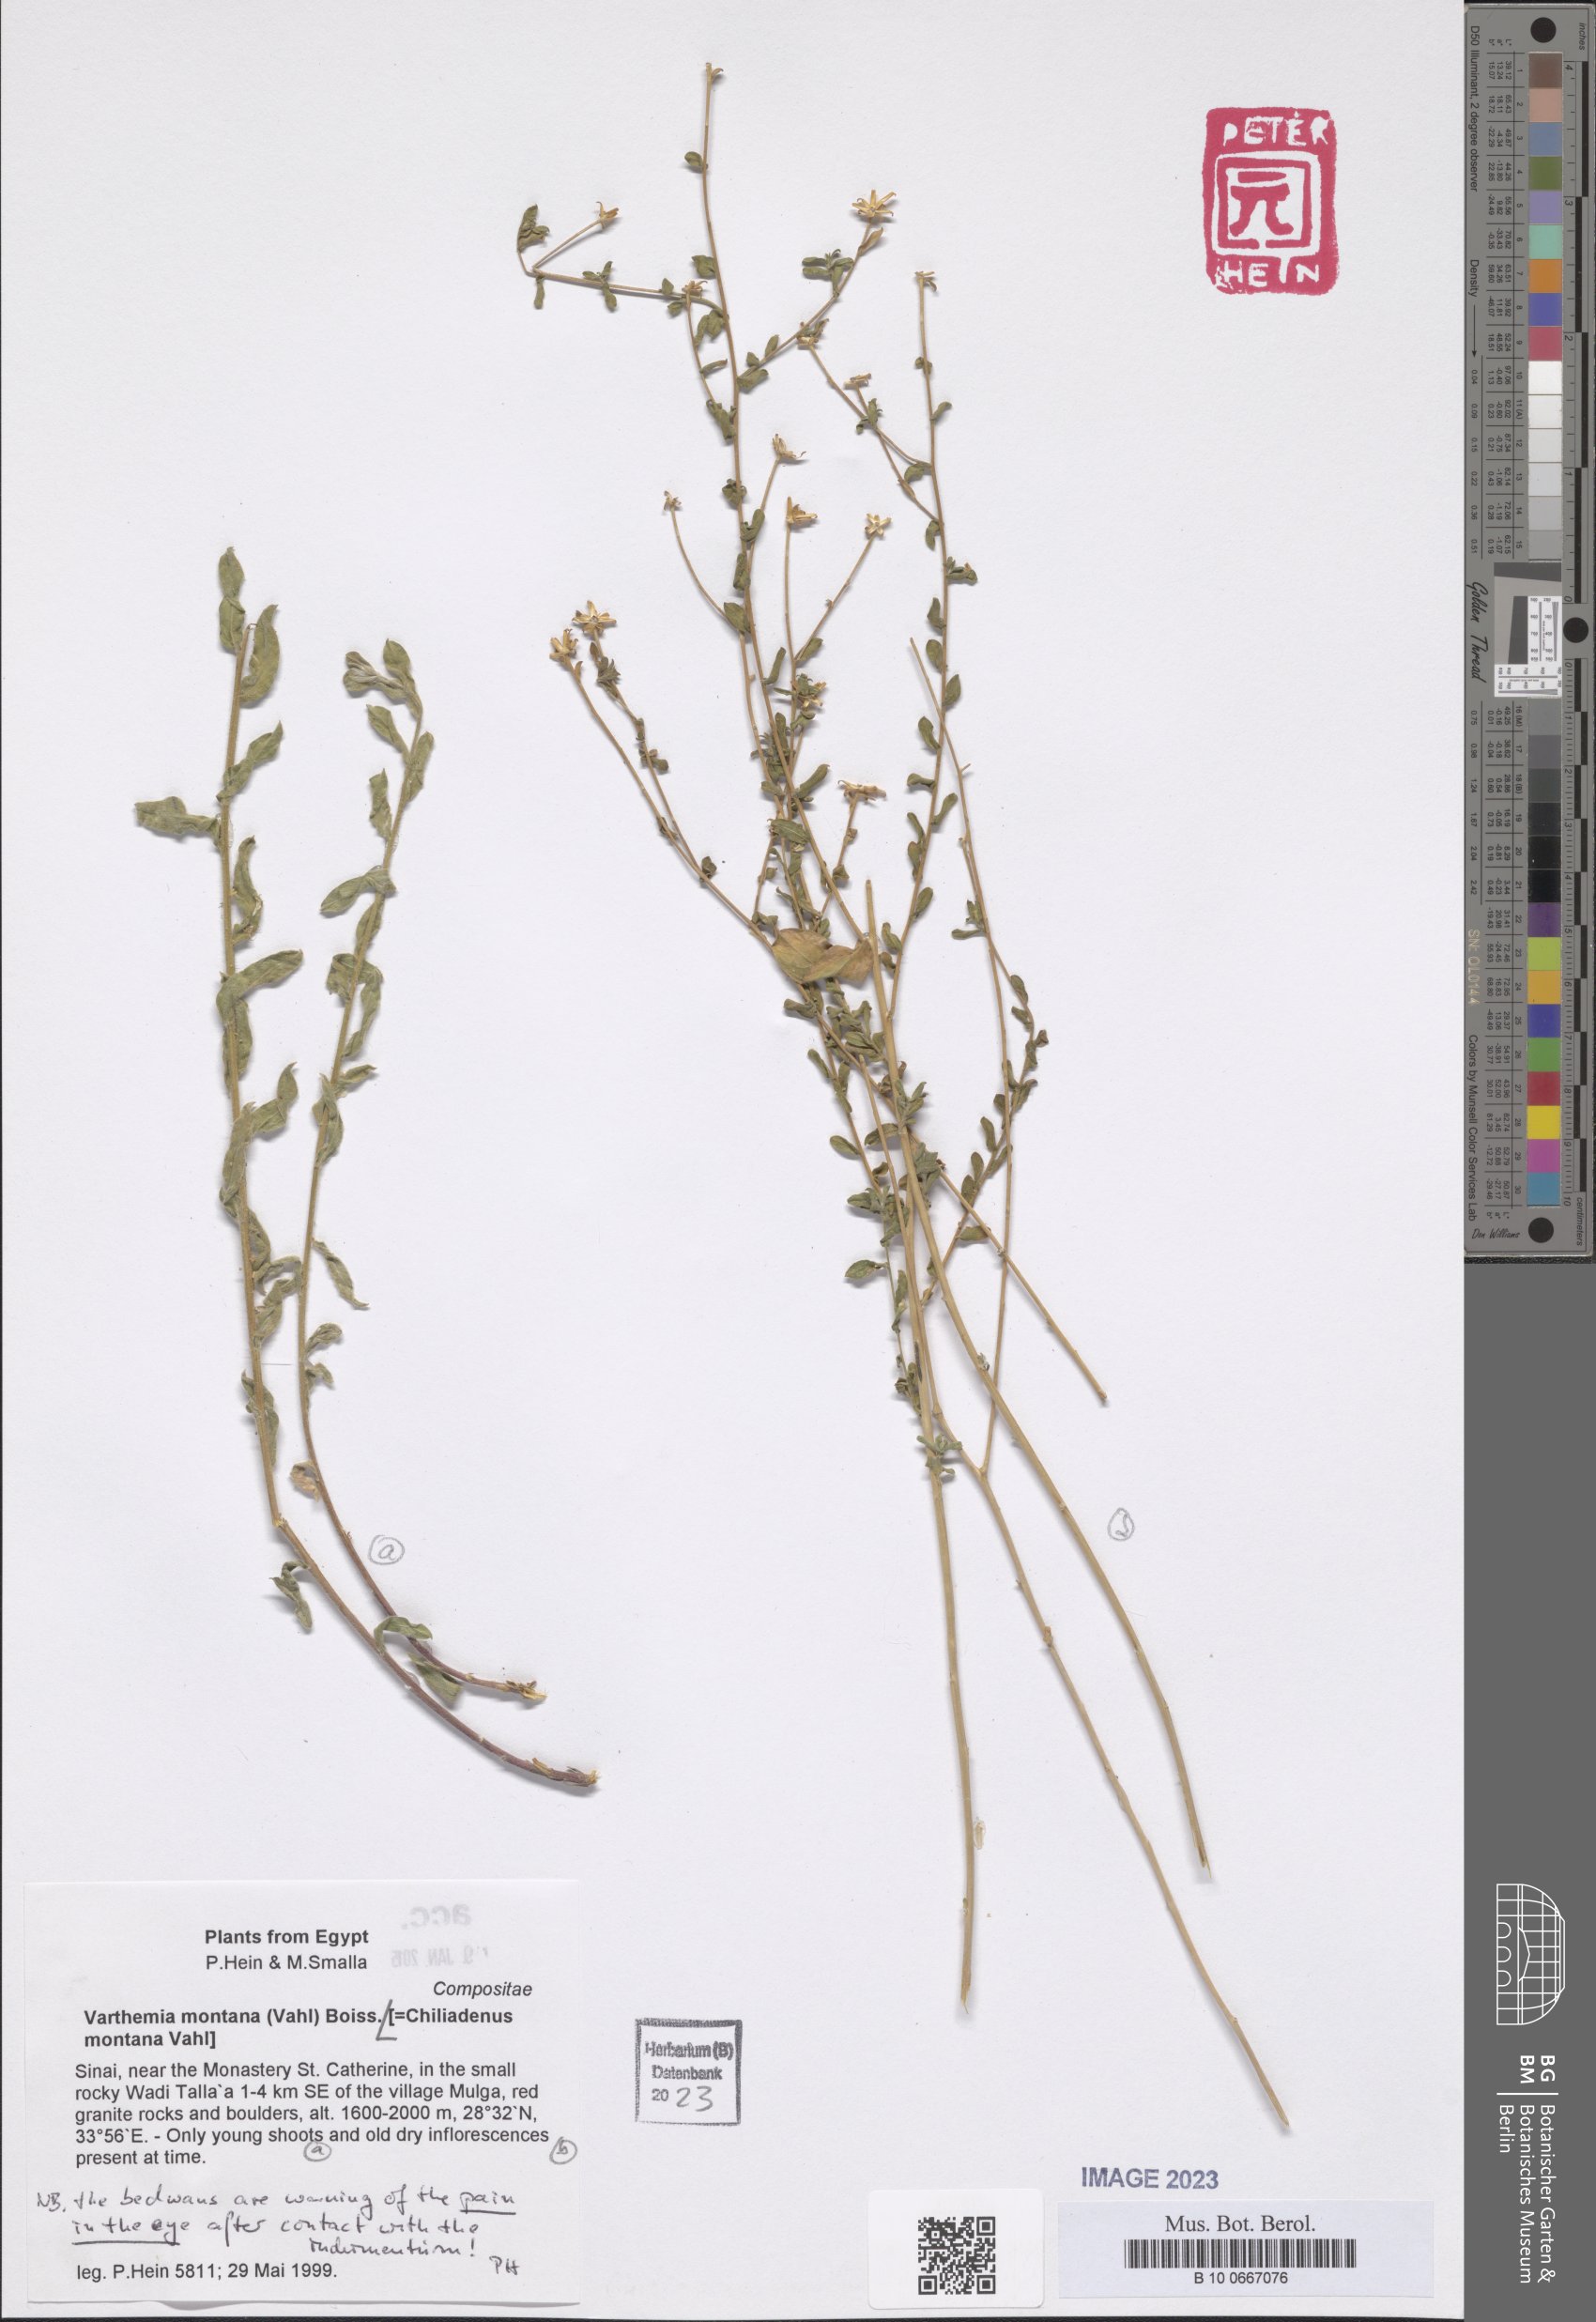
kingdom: Plantae
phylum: Tracheophyta
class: Magnoliopsida
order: Asterales
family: Asteraceae
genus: Chiliadenus
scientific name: Chiliadenus montanus
